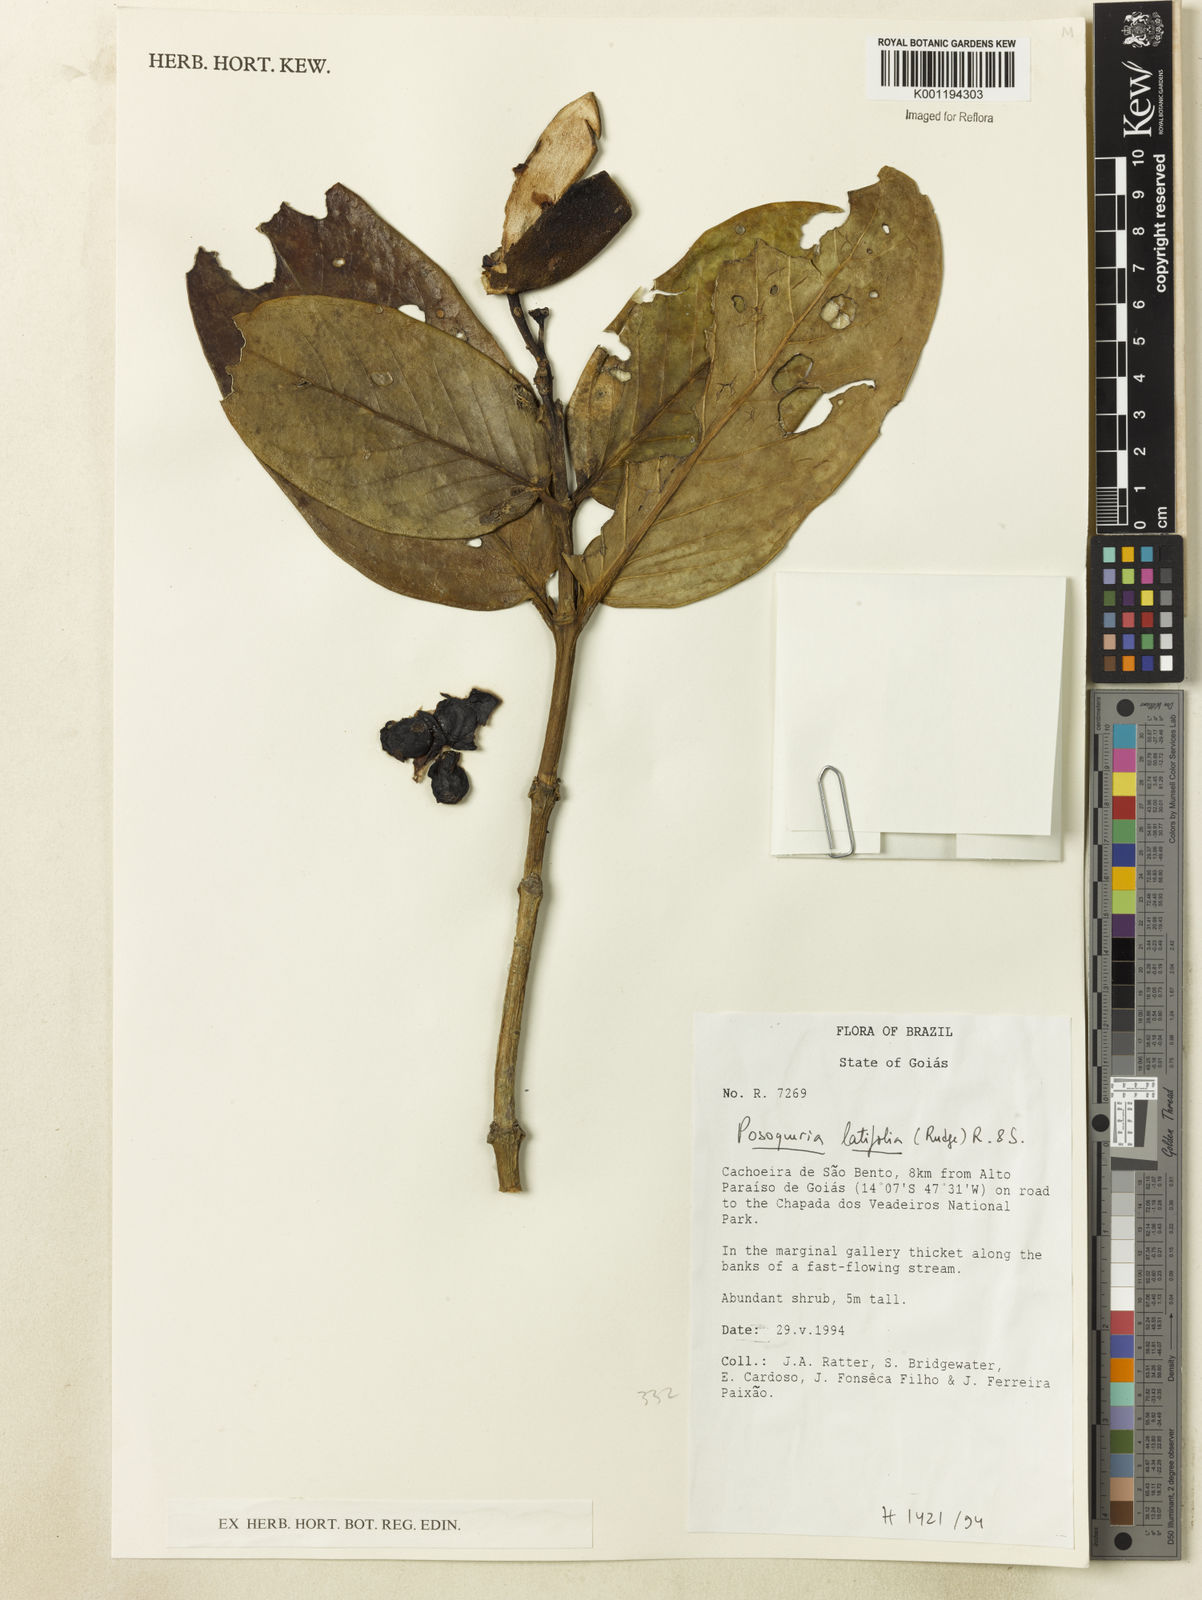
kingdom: Plantae
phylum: Tracheophyta
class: Magnoliopsida
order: Gentianales
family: Rubiaceae
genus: Posoqueria
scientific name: Posoqueria latifolia
